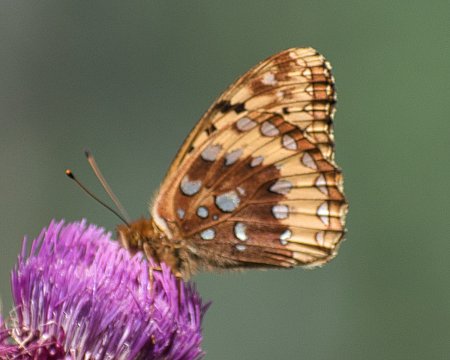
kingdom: Animalia
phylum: Arthropoda
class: Insecta
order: Lepidoptera
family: Nymphalidae
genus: Speyeria
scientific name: Speyeria cybele
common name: Great Spangled Fritillary
